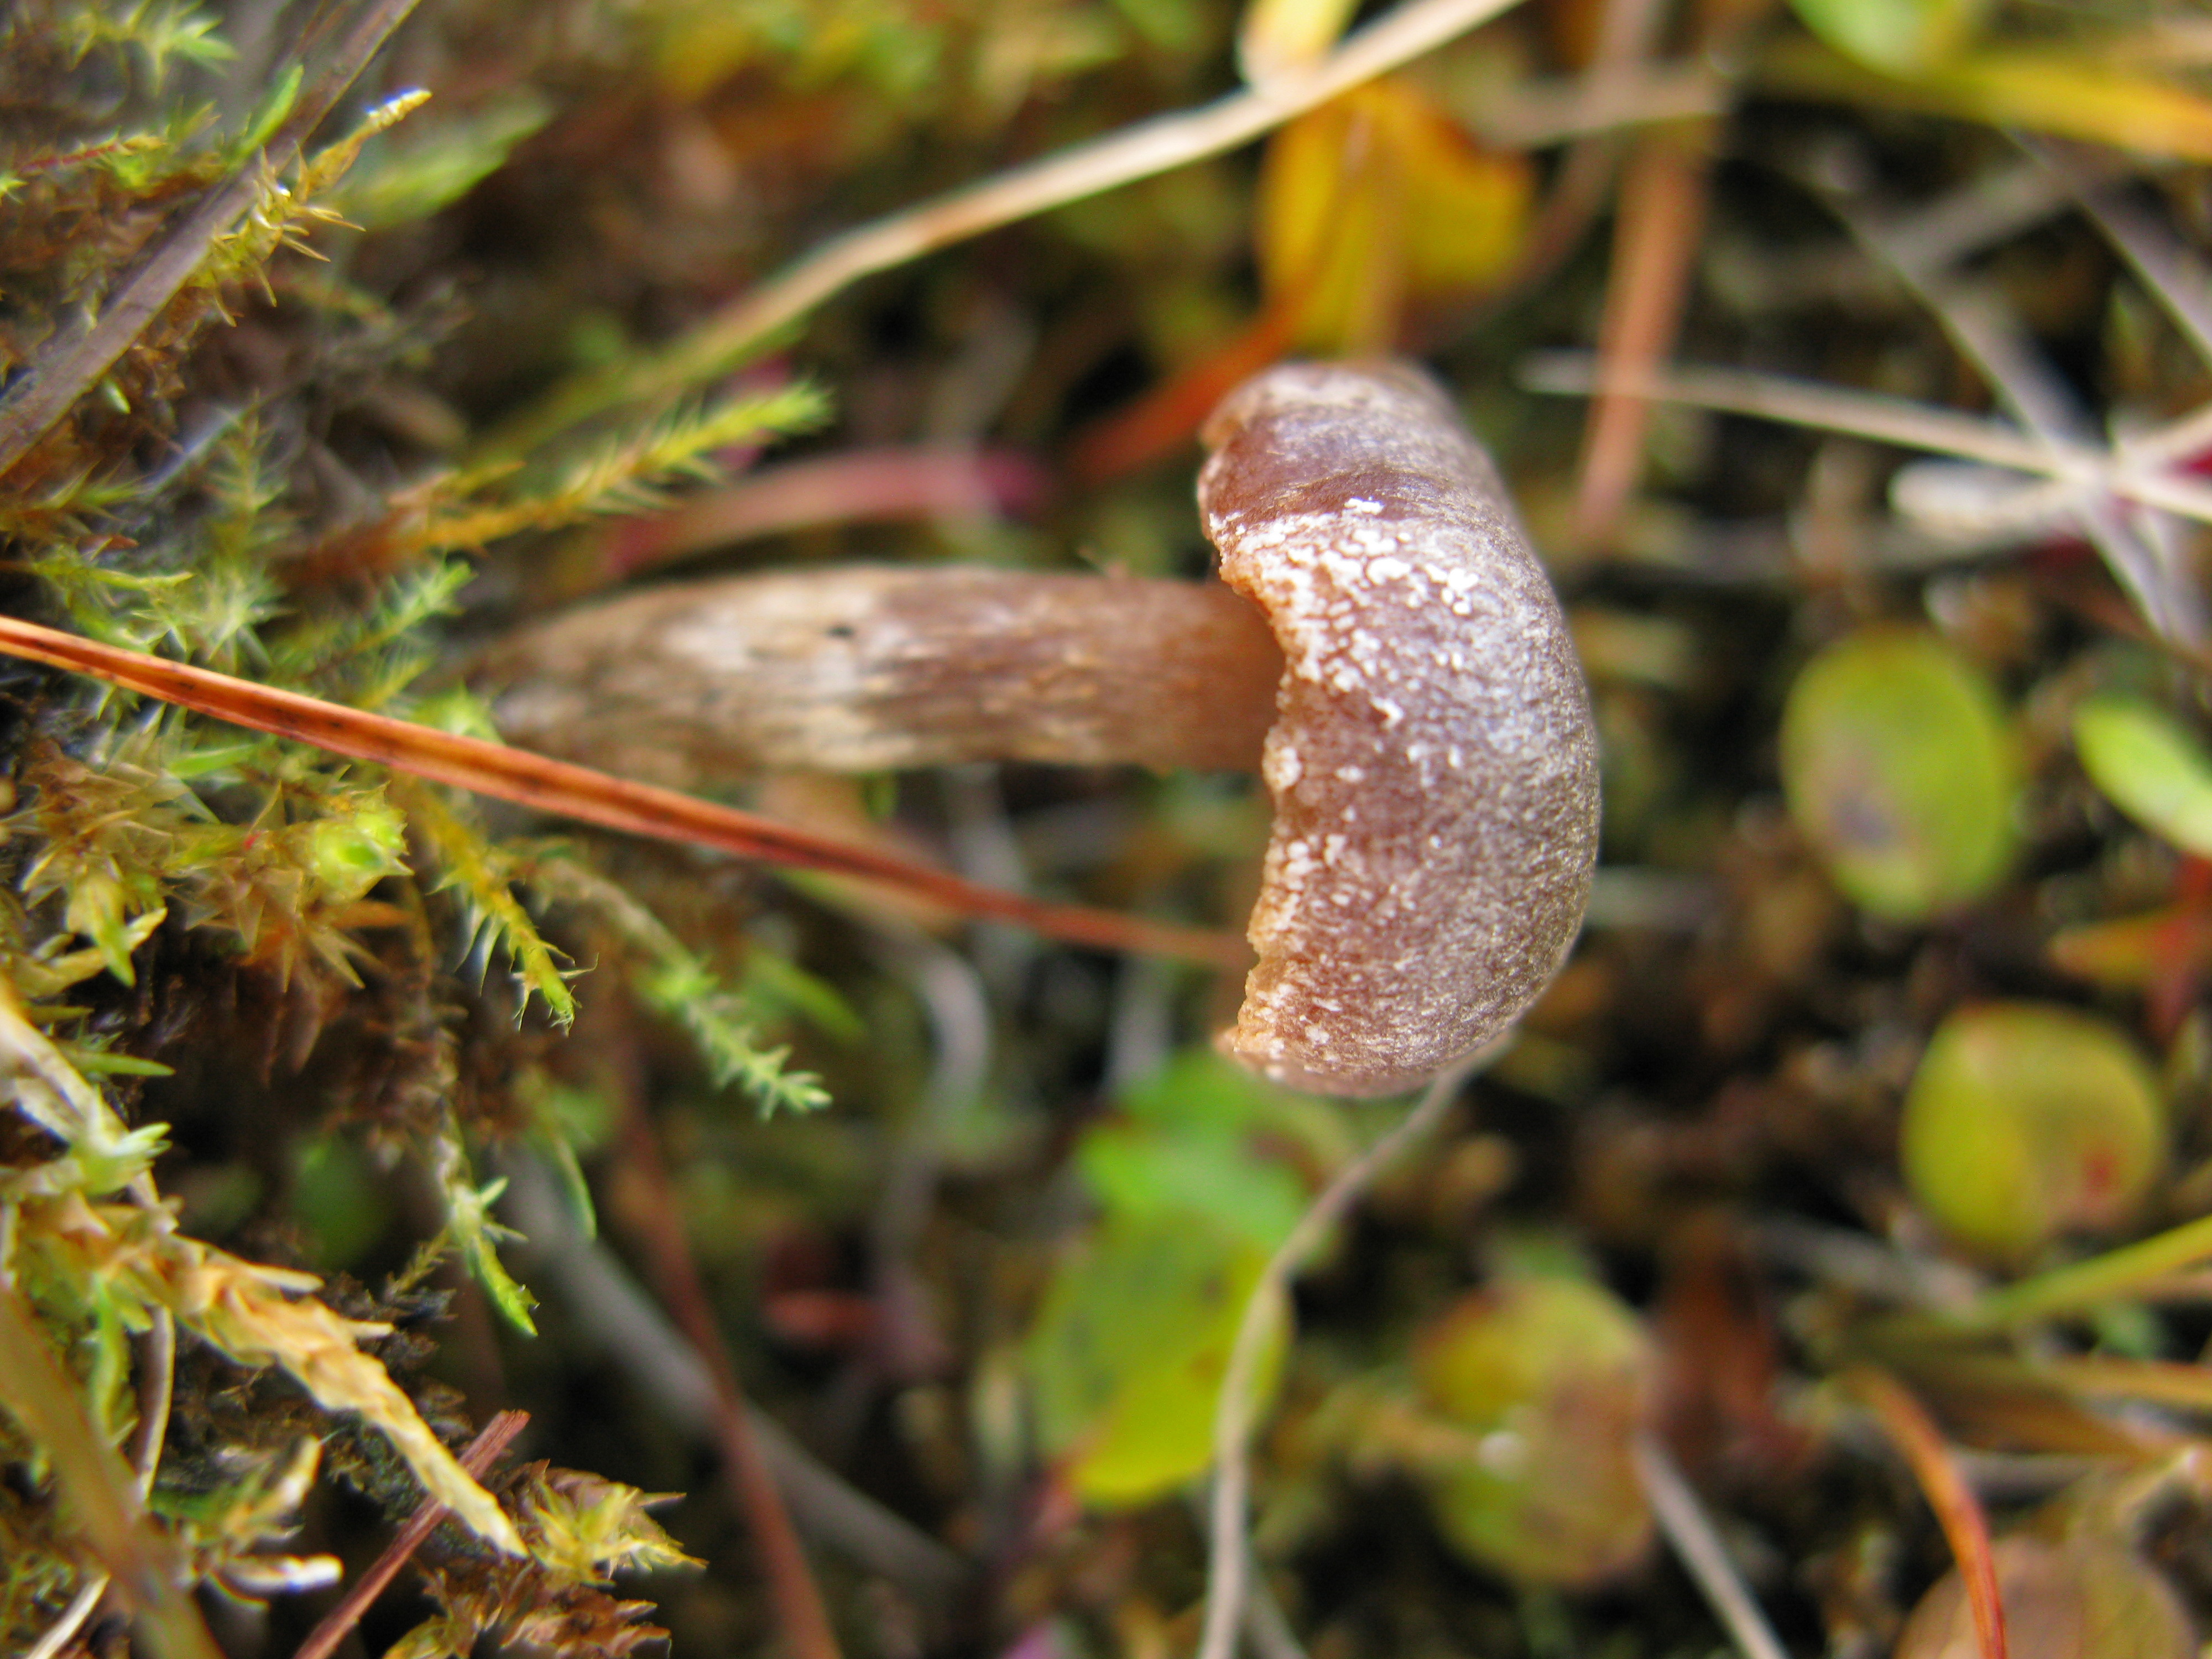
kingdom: Fungi
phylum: Basidiomycota
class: Agaricomycetes
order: Agaricales
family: Hymenogastraceae
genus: Hebeloma
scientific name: Hebeloma nigellum
